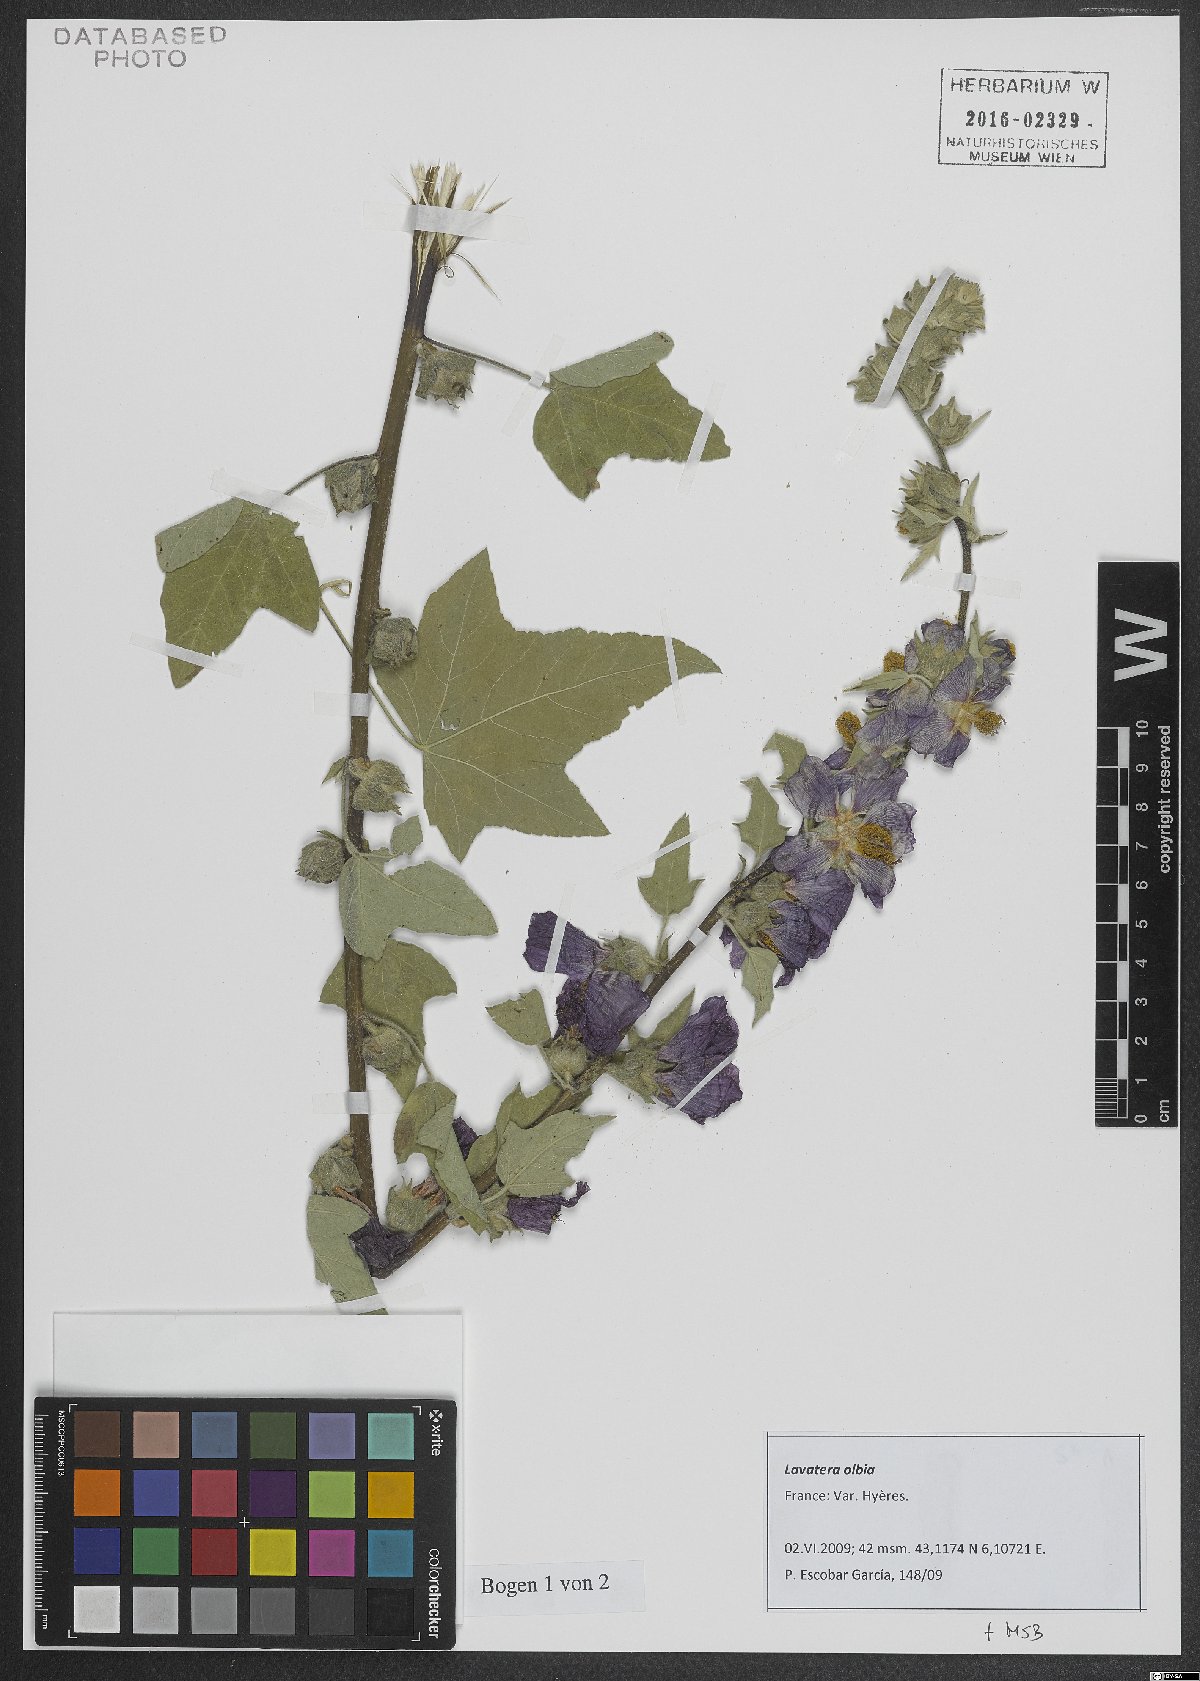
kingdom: Plantae
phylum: Tracheophyta
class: Magnoliopsida
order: Malvales
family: Malvaceae
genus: Malva
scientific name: Malva olbia
